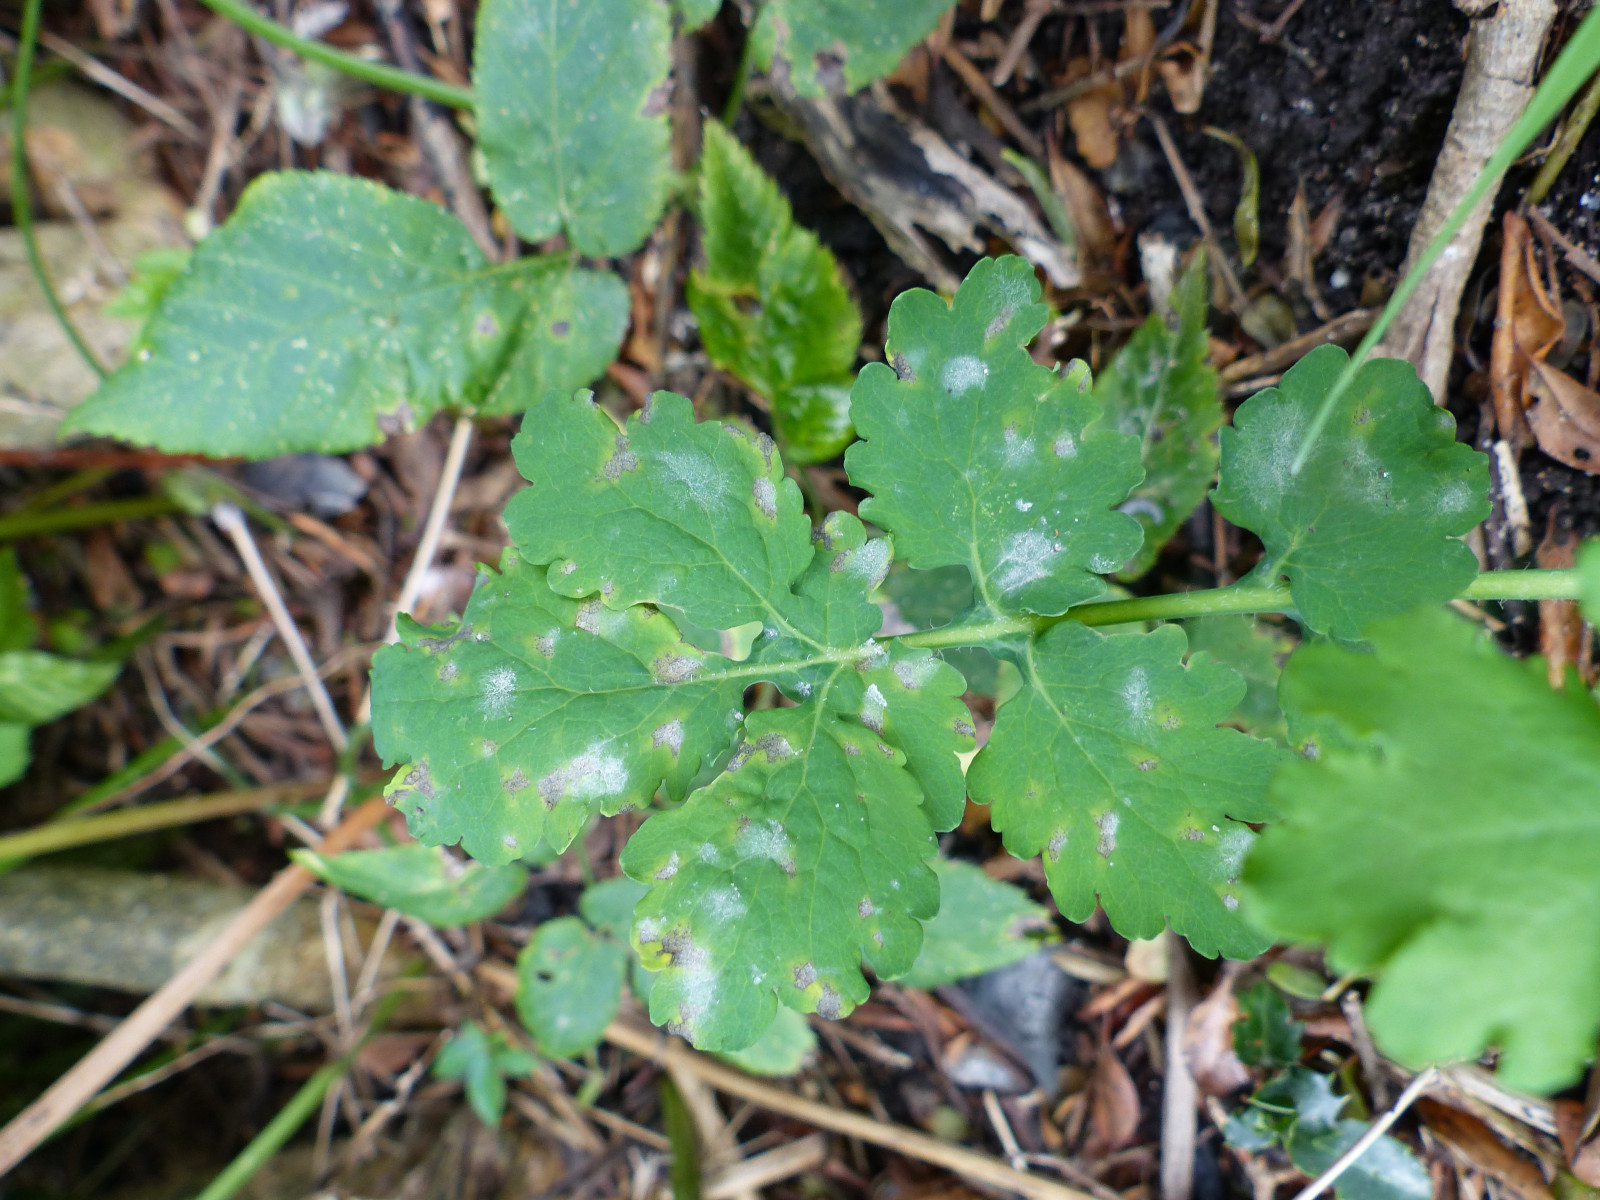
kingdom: Fungi
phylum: Ascomycota
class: Leotiomycetes
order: Helotiales
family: Erysiphaceae
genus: Erysiphe
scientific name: Erysiphe macleayae
